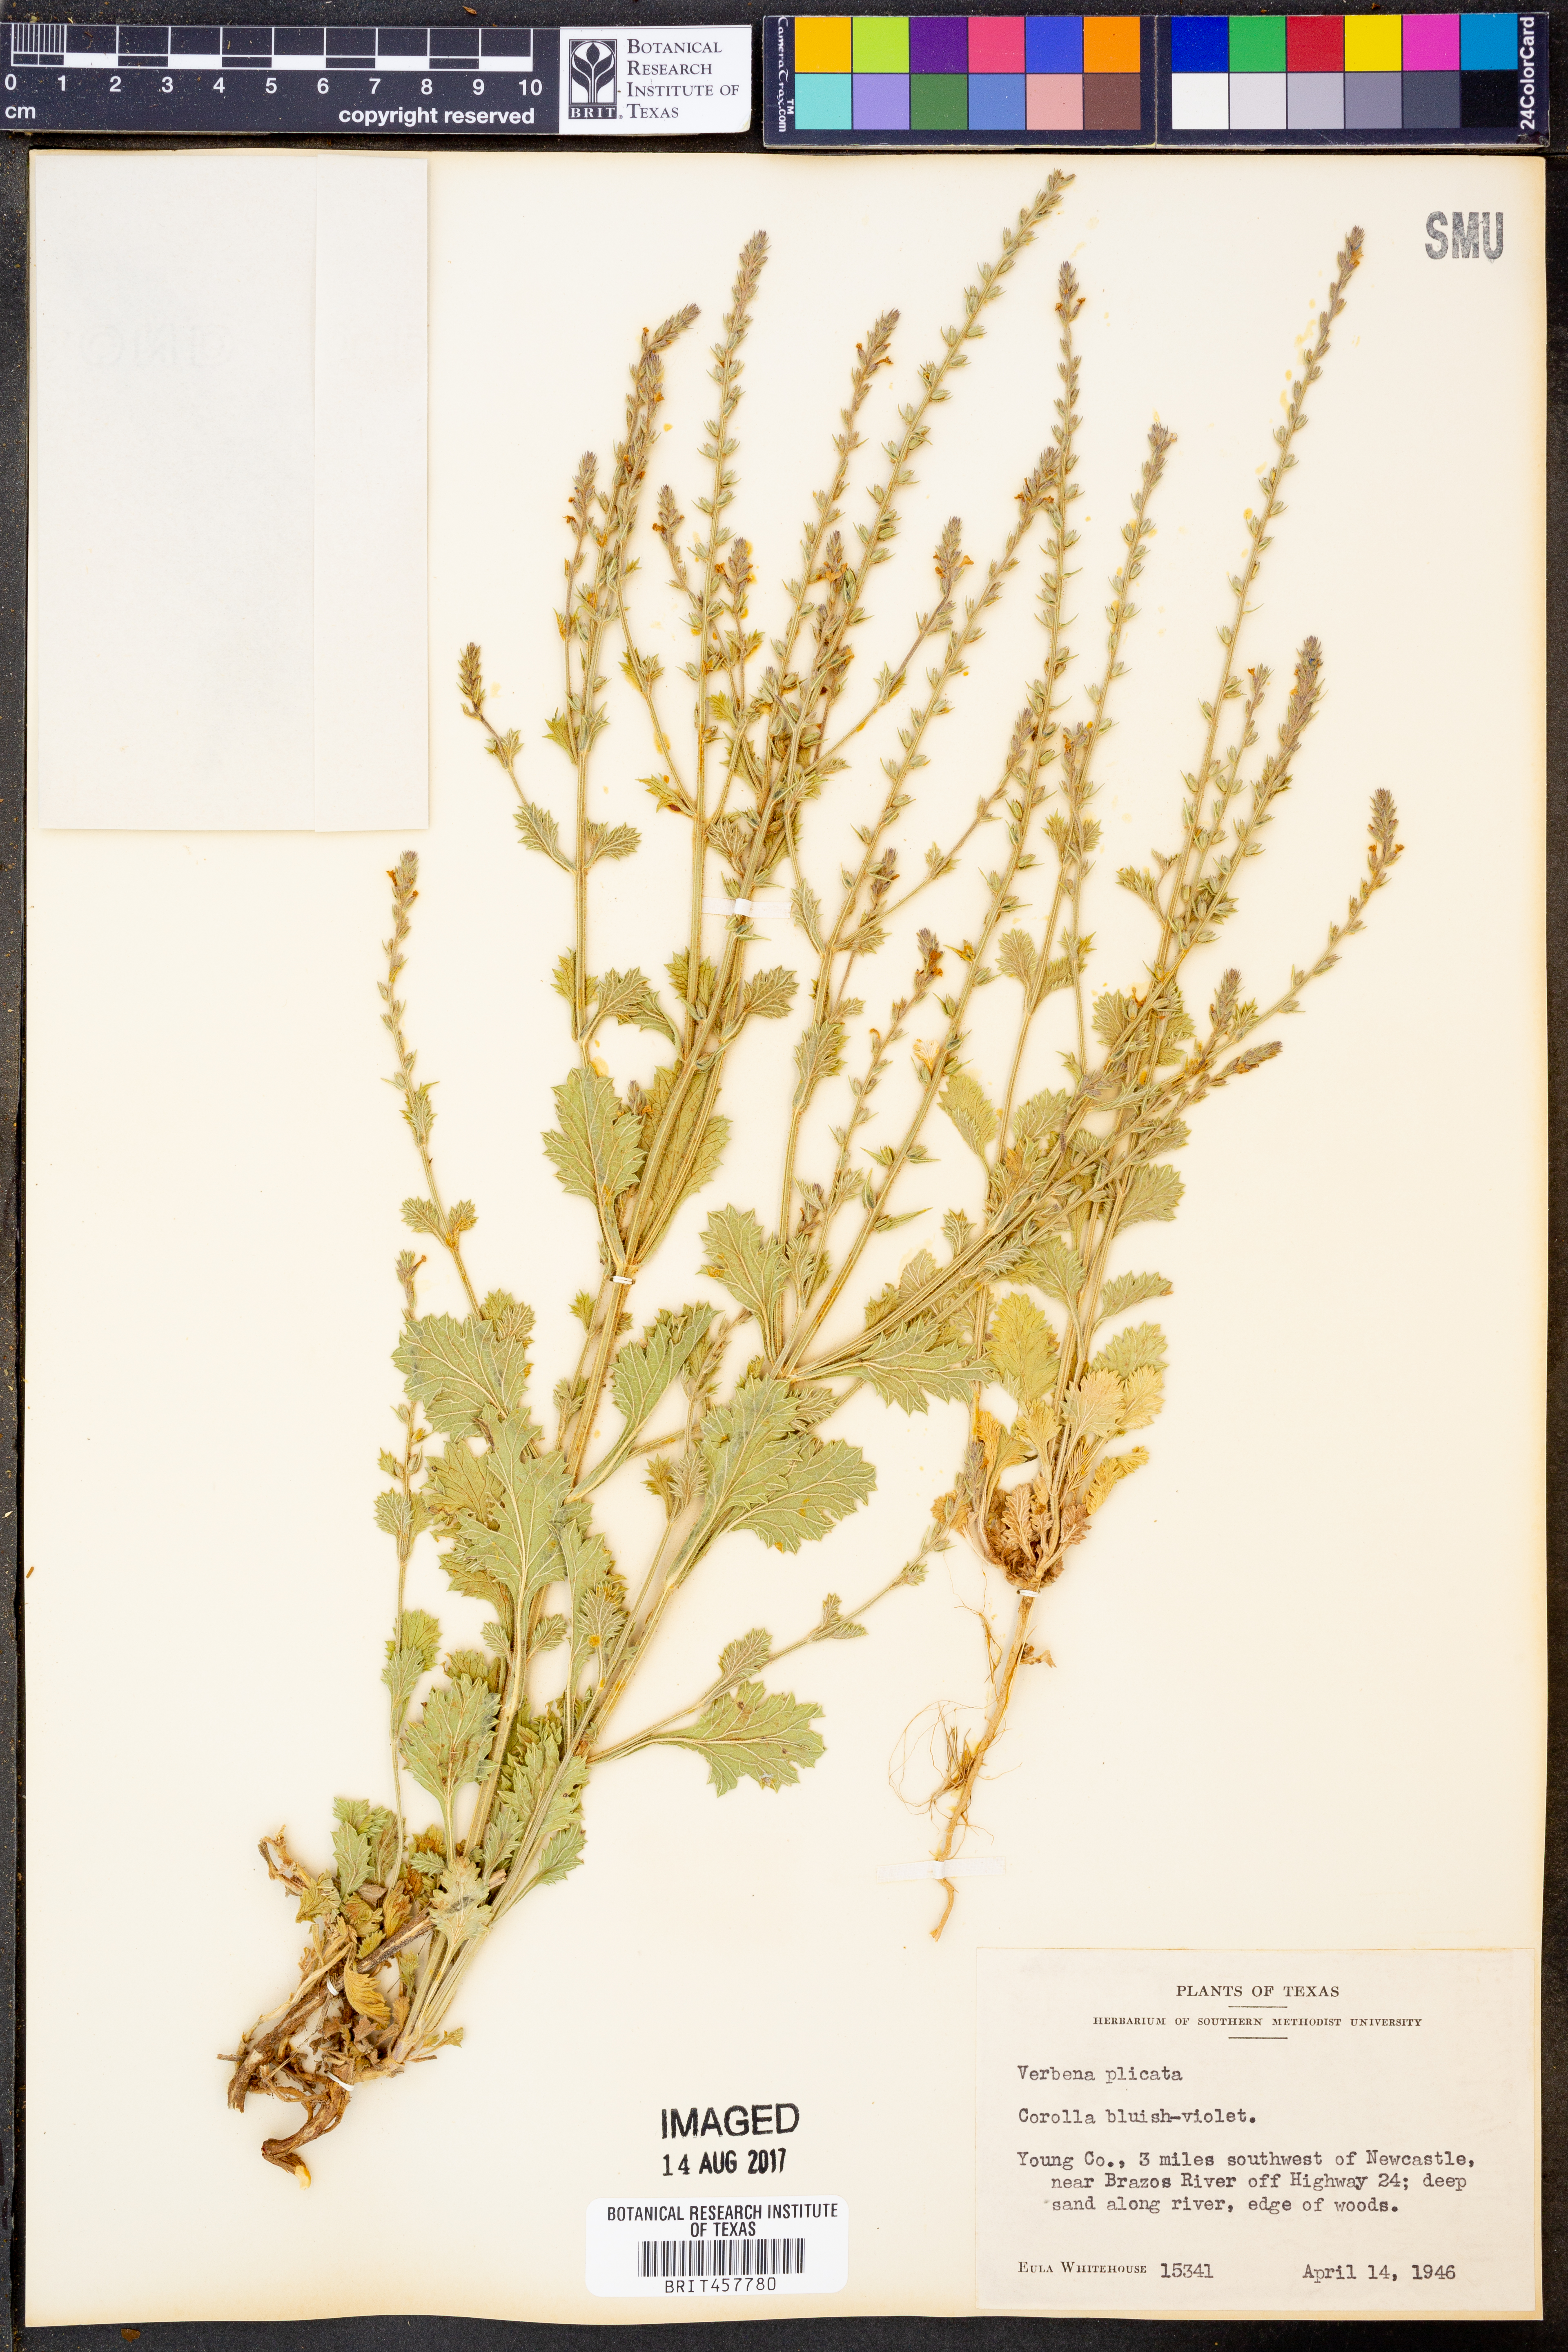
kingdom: Plantae
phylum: Tracheophyta
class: Magnoliopsida
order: Lamiales
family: Verbenaceae
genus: Verbena
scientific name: Verbena plicata
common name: Fan-leaf vervain
